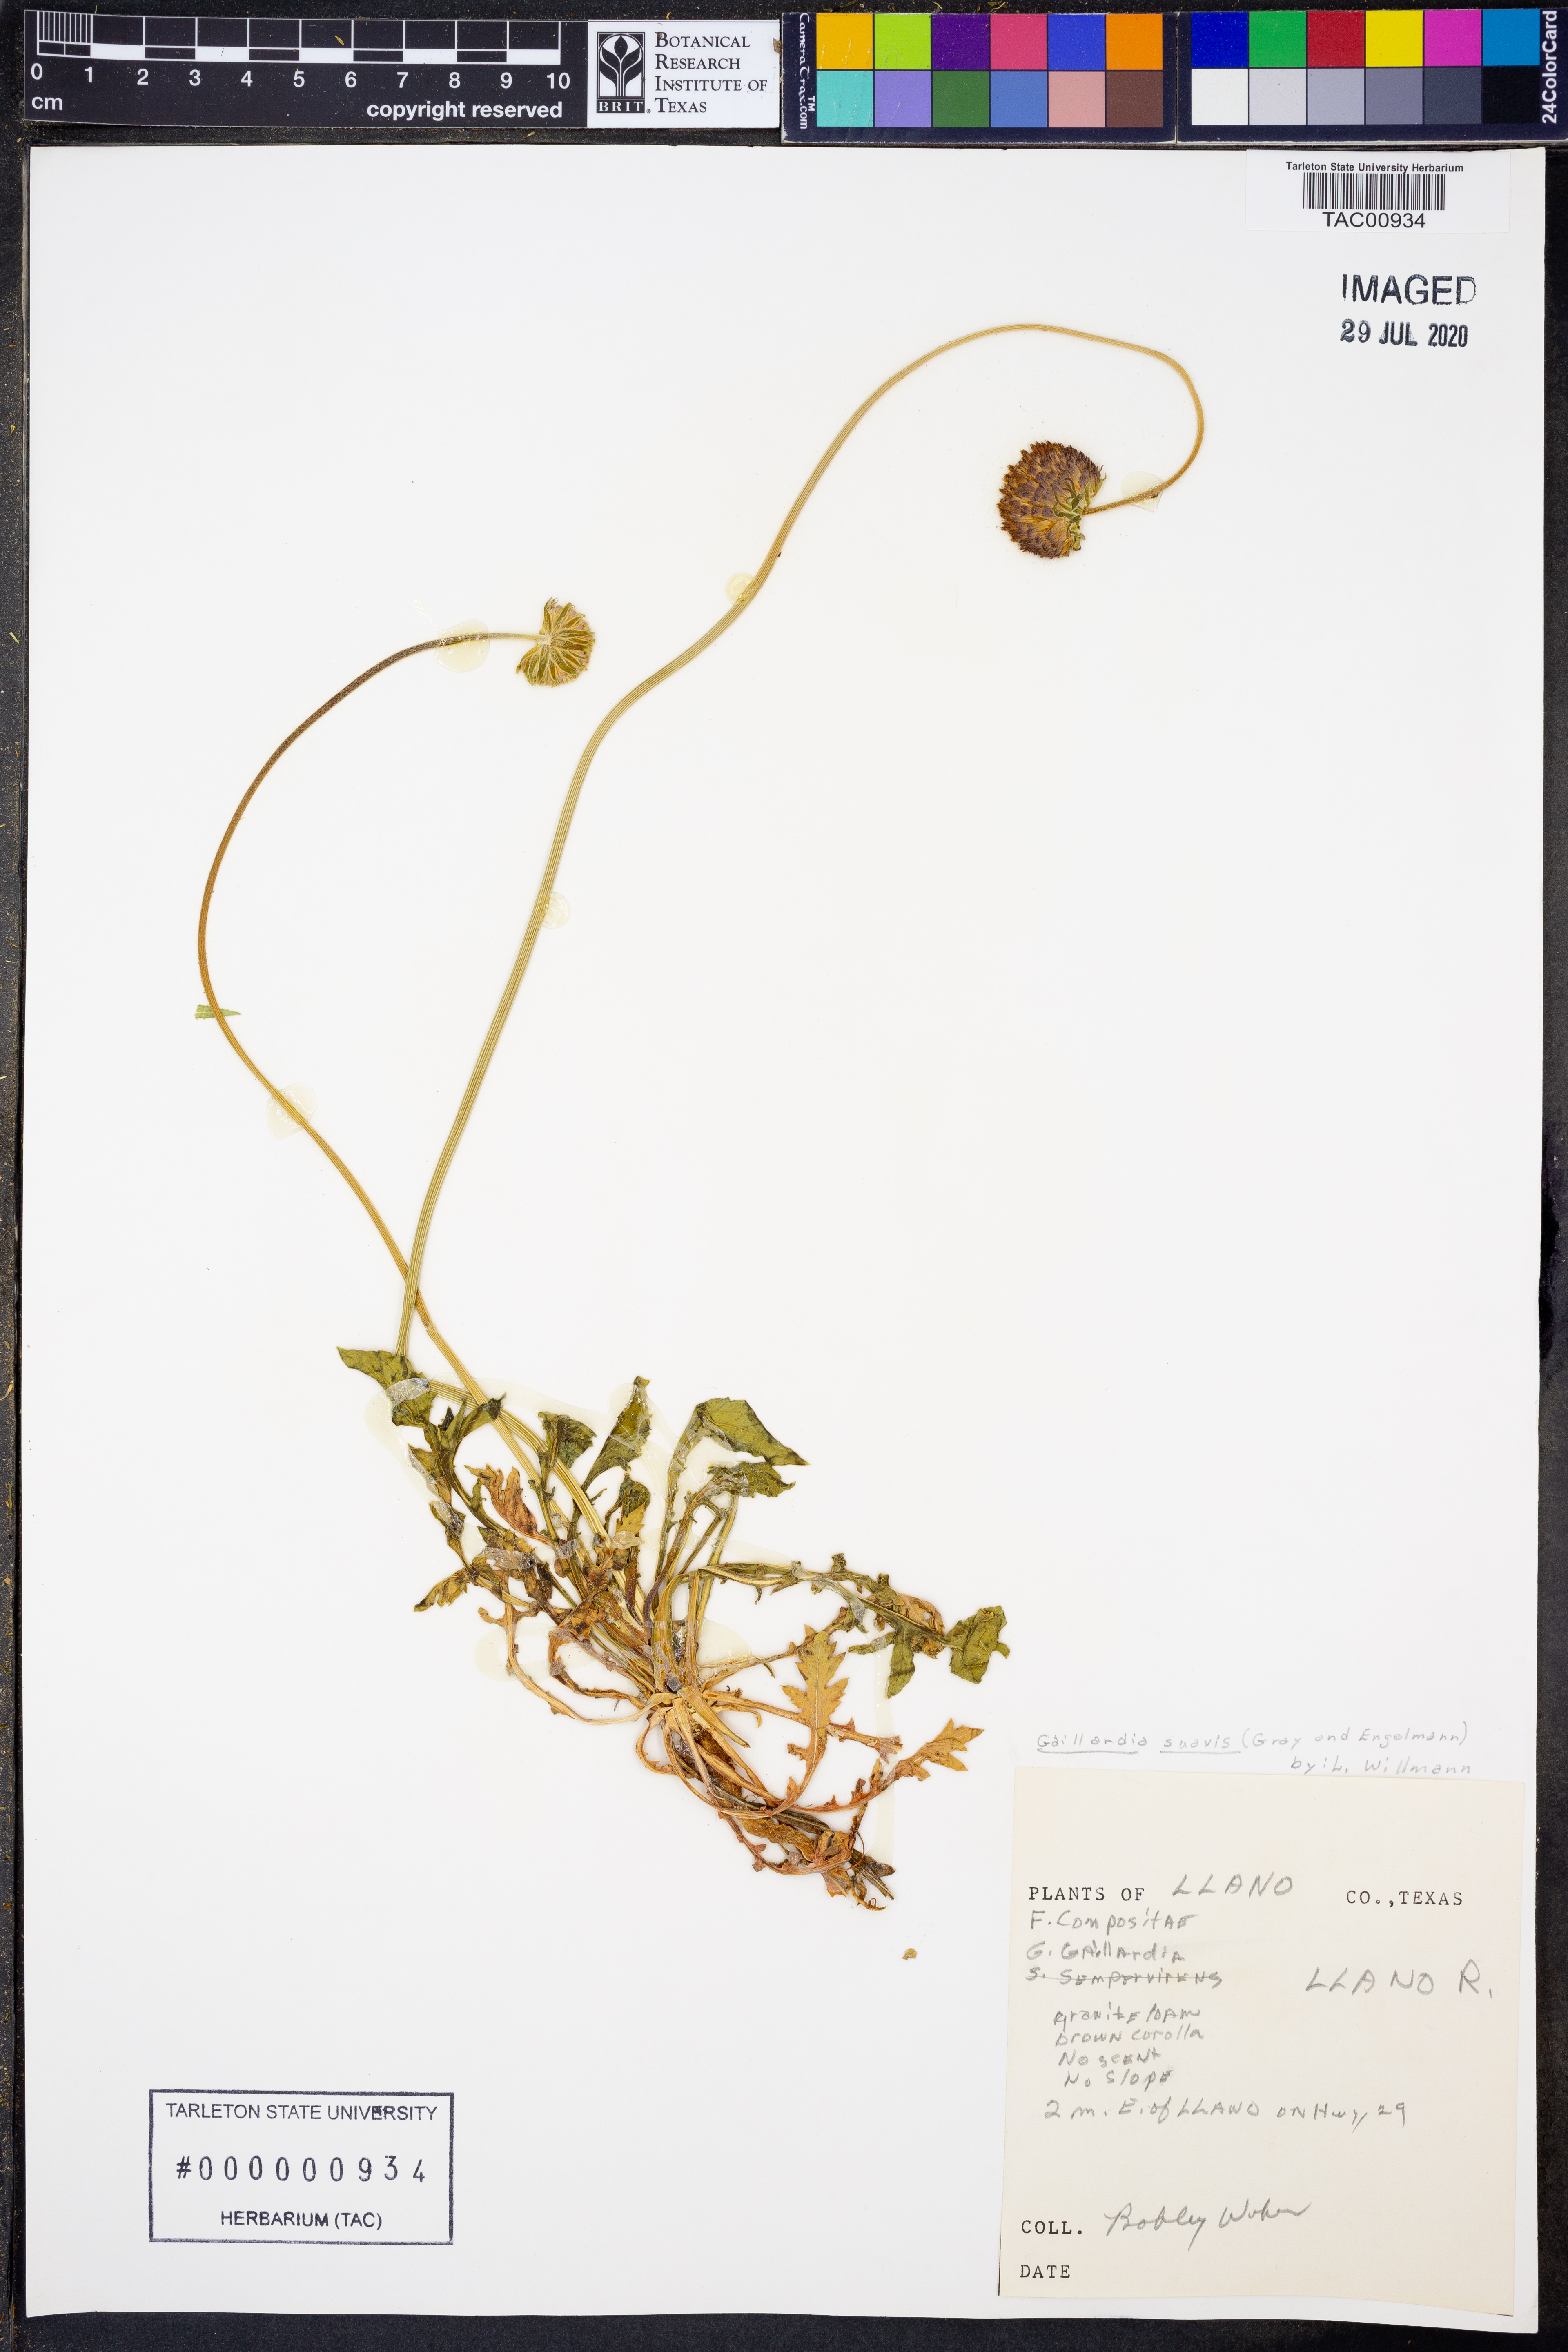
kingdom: Plantae
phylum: Tracheophyta
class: Magnoliopsida
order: Asterales
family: Asteraceae
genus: Gaillardia
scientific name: Gaillardia suavis
